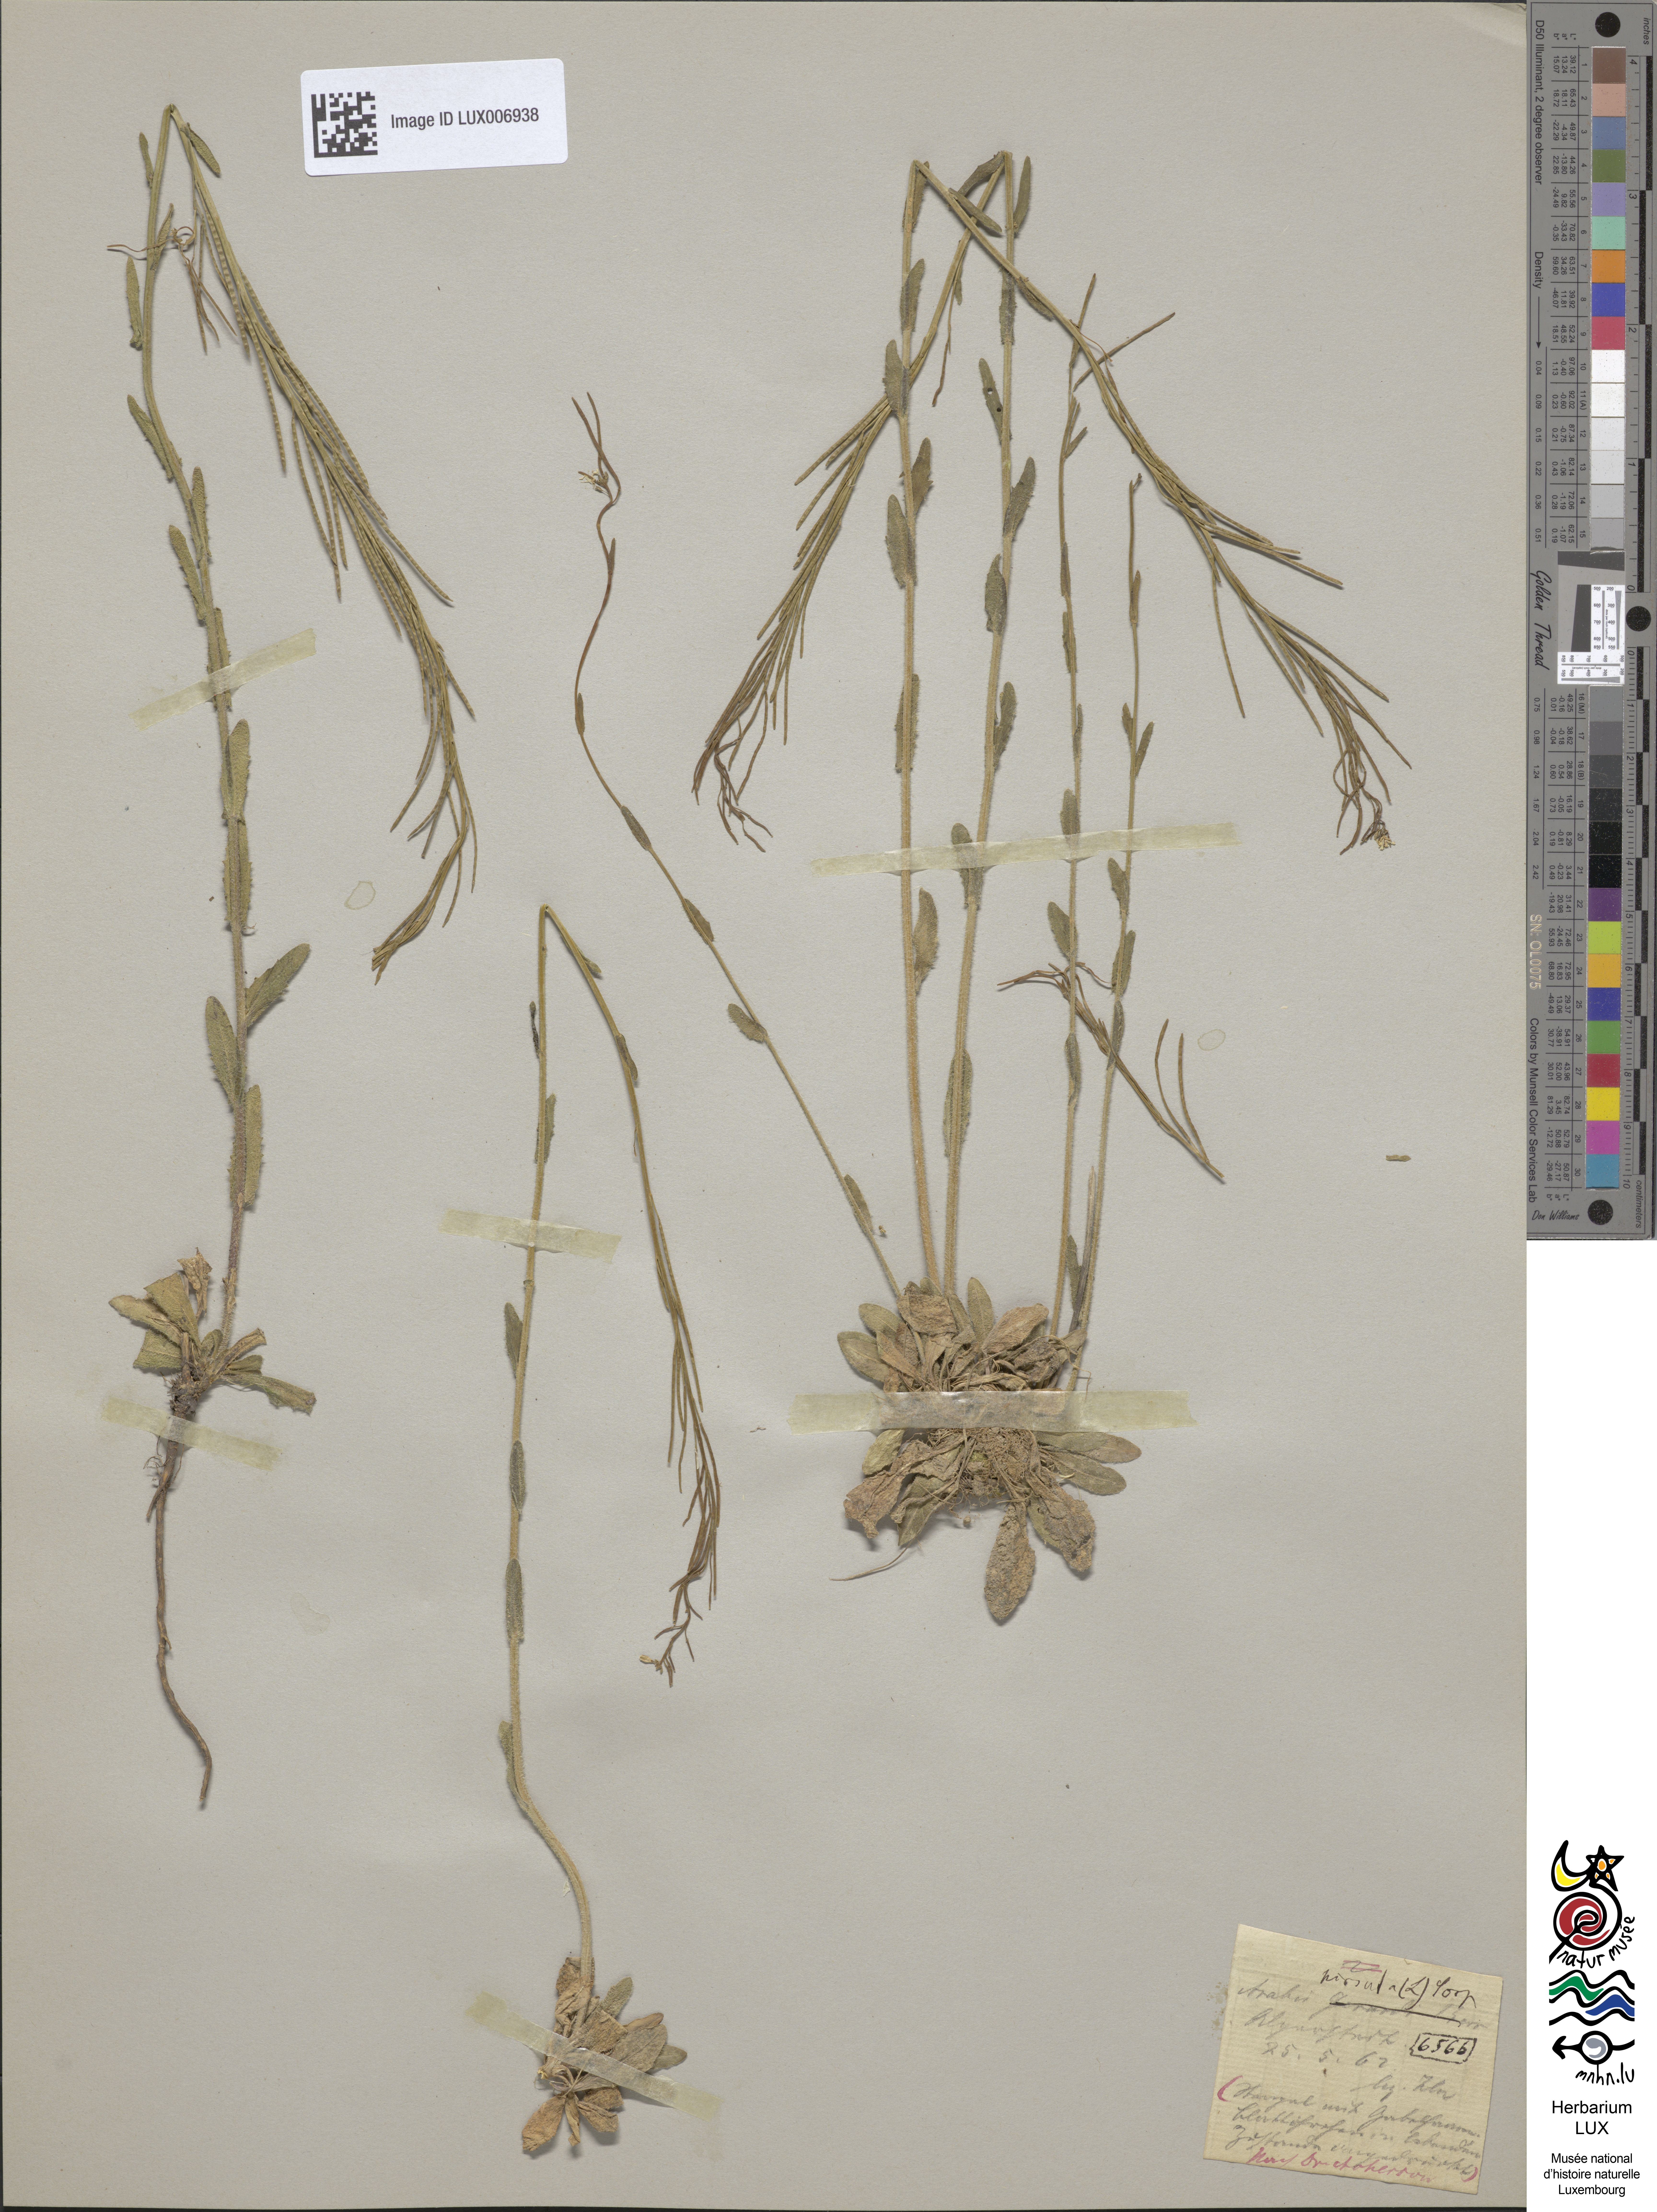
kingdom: Plantae
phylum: Tracheophyta
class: Magnoliopsida
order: Brassicales
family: Brassicaceae
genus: Arabis
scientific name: Arabis hirsuta
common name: Hairy rock-cress
